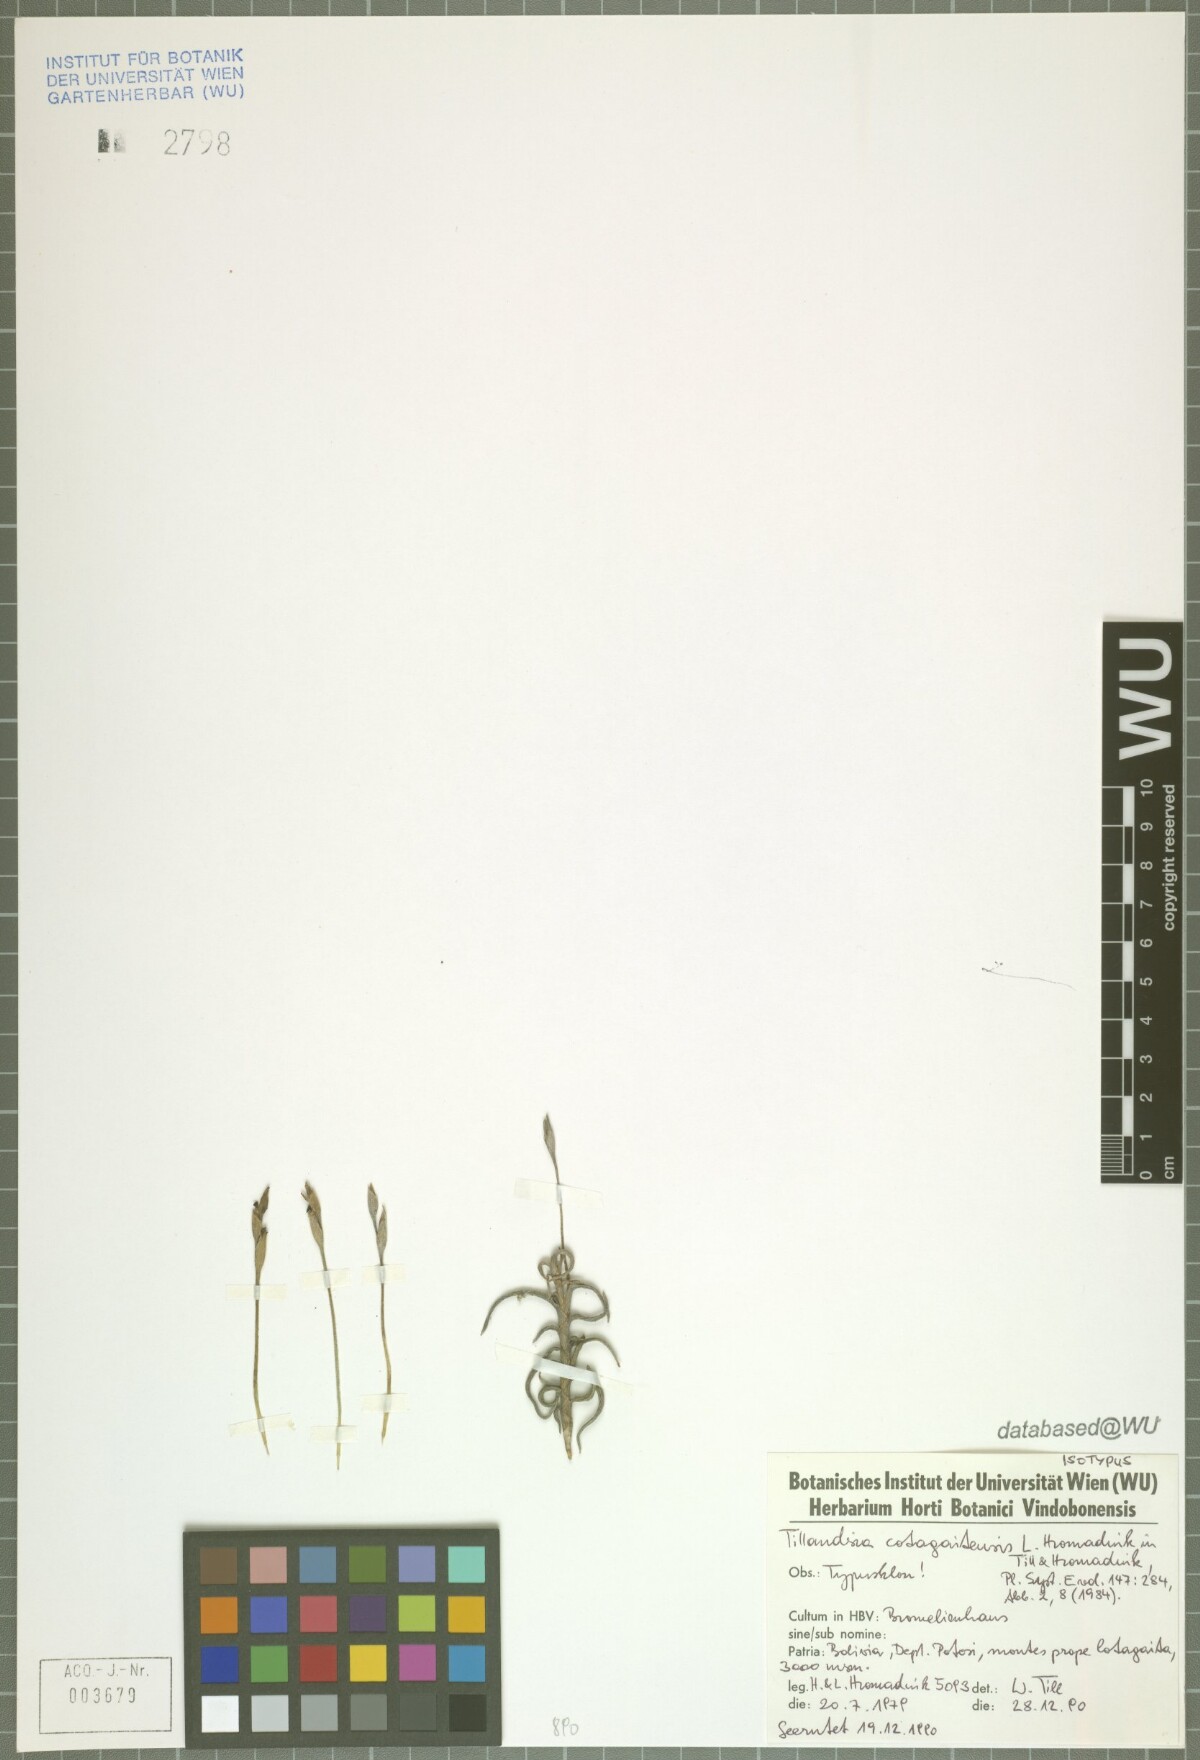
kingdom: Plantae
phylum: Tracheophyta
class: Liliopsida
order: Poales
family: Bromeliaceae
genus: Tillandsia
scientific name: Tillandsia cotagaitensis
